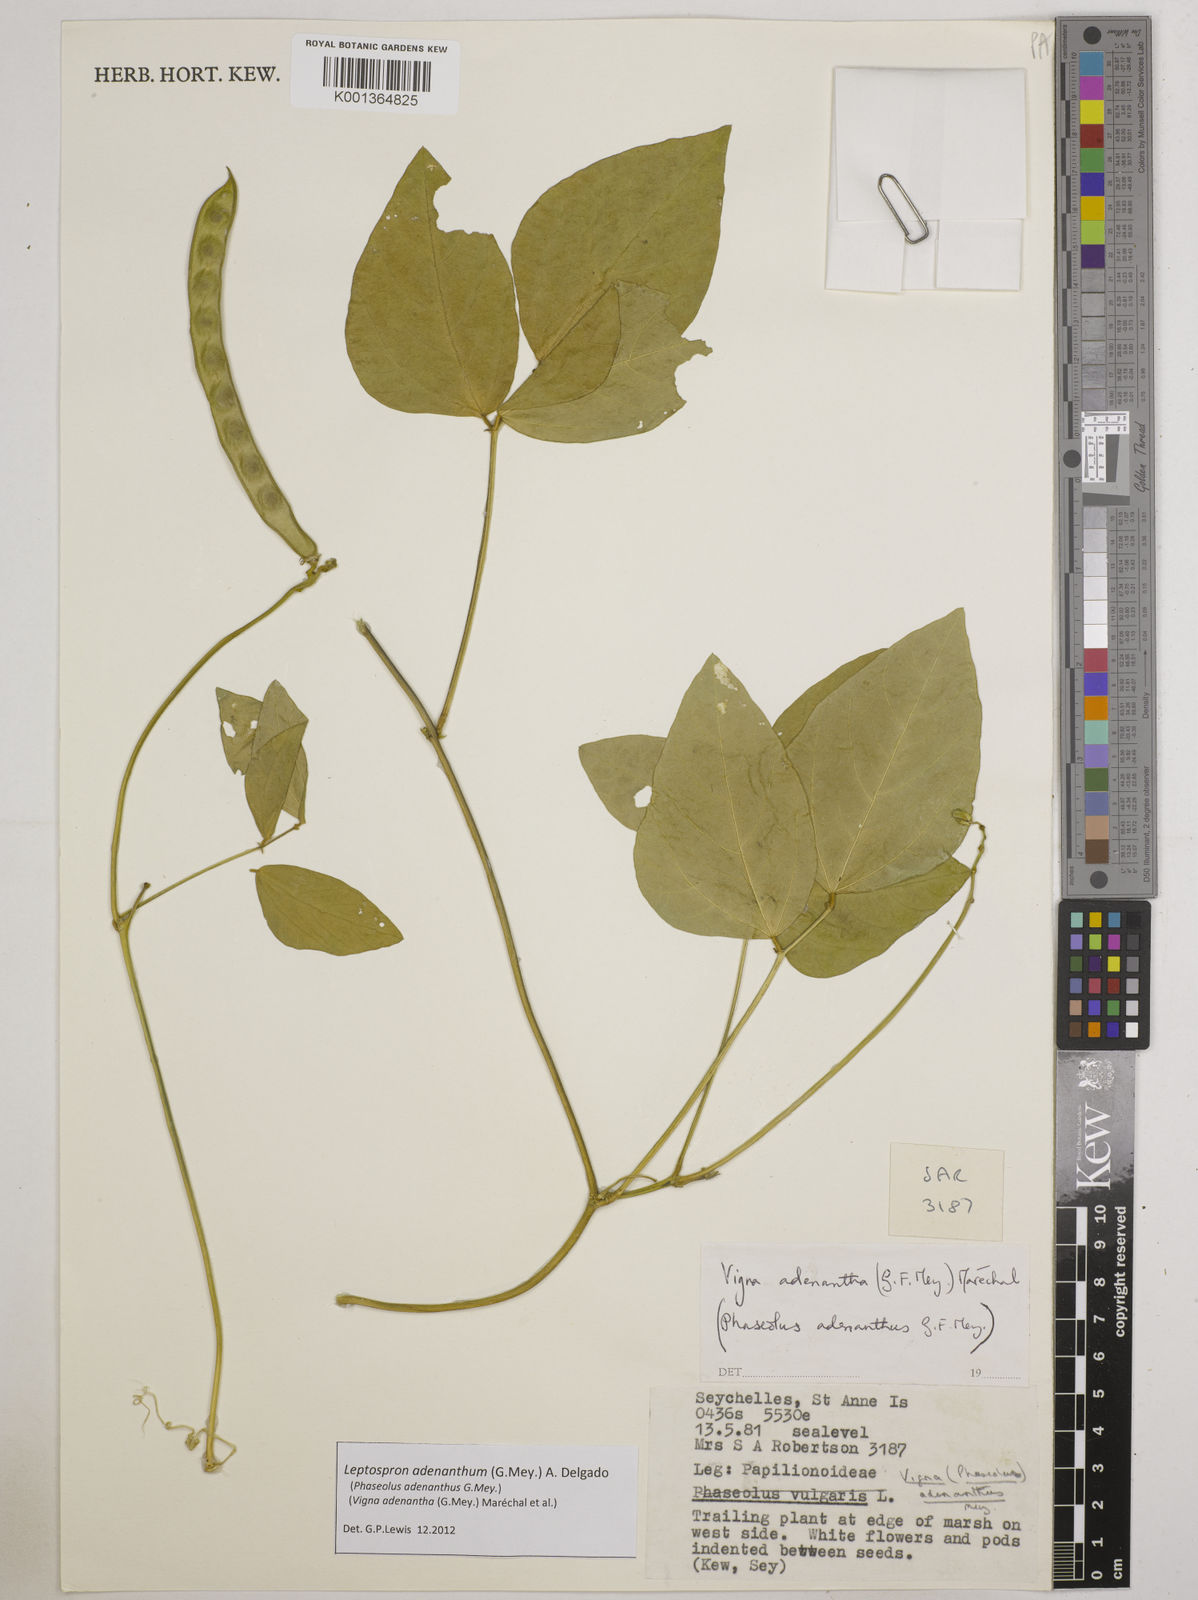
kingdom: Plantae
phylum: Tracheophyta
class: Magnoliopsida
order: Fabales
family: Fabaceae
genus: Leptospron
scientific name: Leptospron adenanthum
